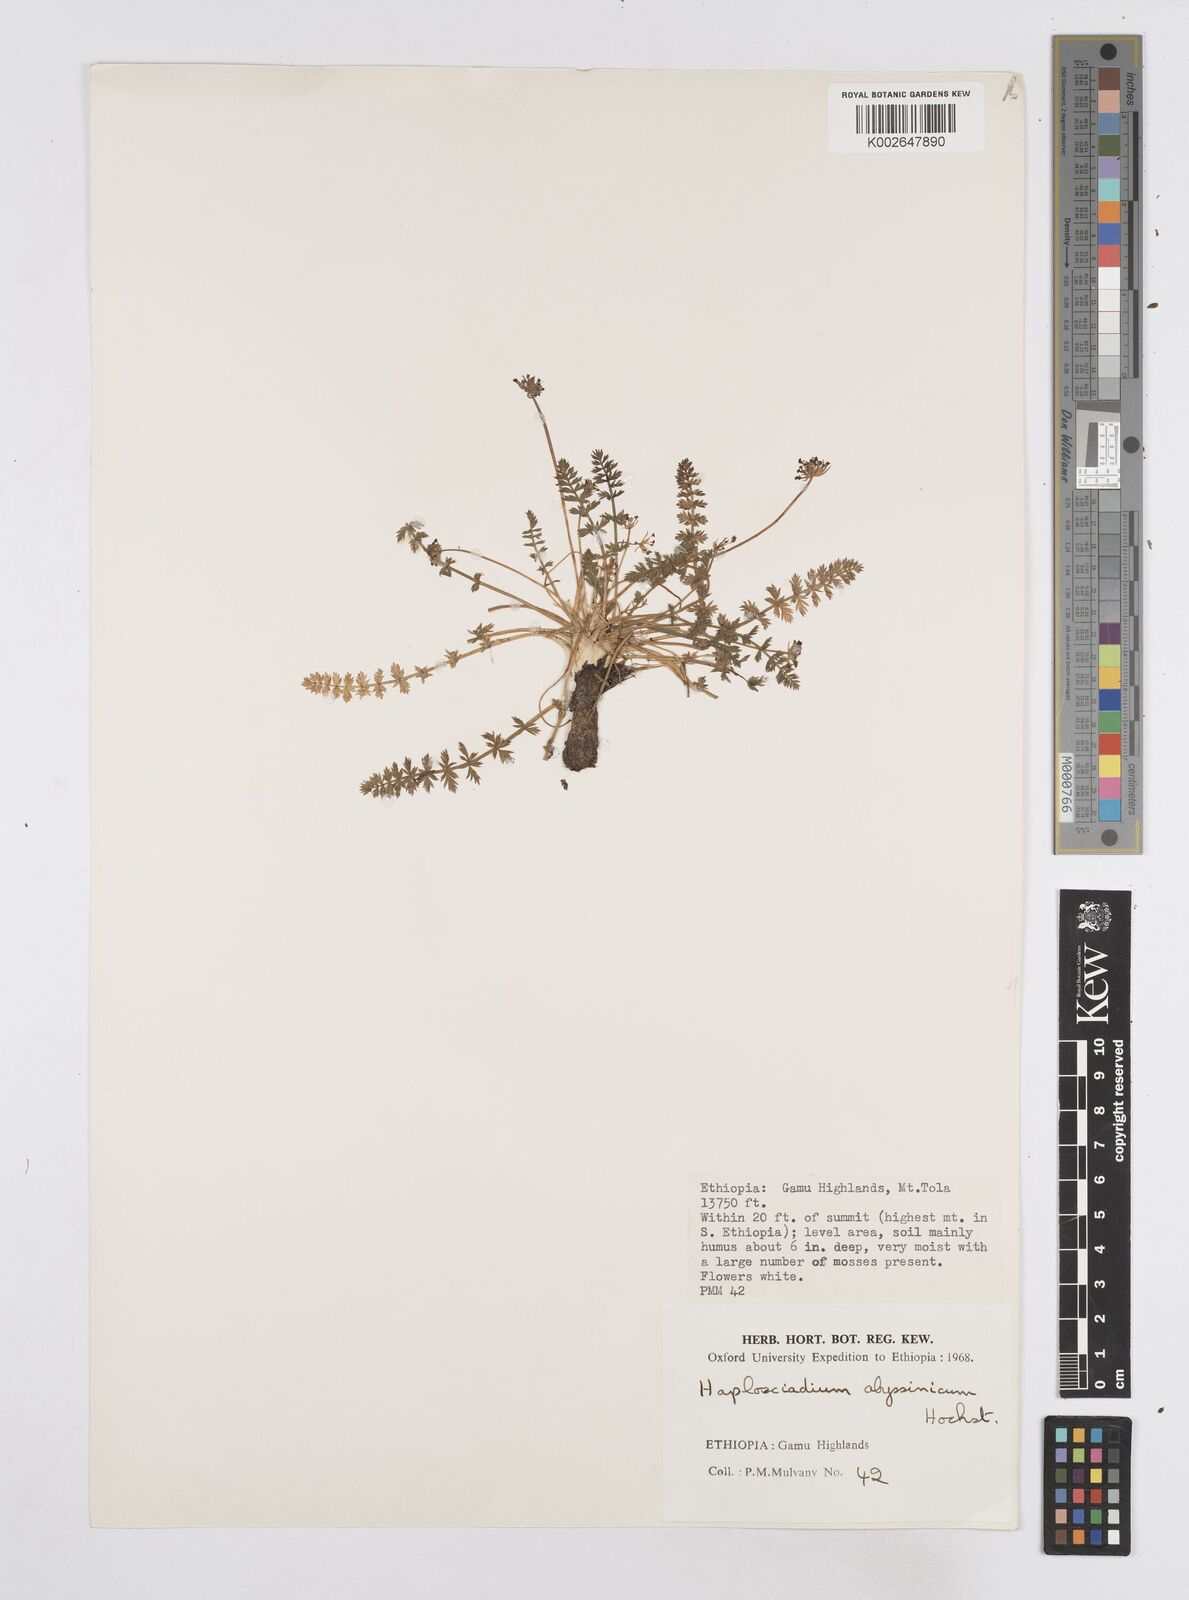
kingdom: Plantae
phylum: Tracheophyta
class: Magnoliopsida
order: Apiales
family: Apiaceae
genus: Haplosciadium
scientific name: Haplosciadium abyssinicum
